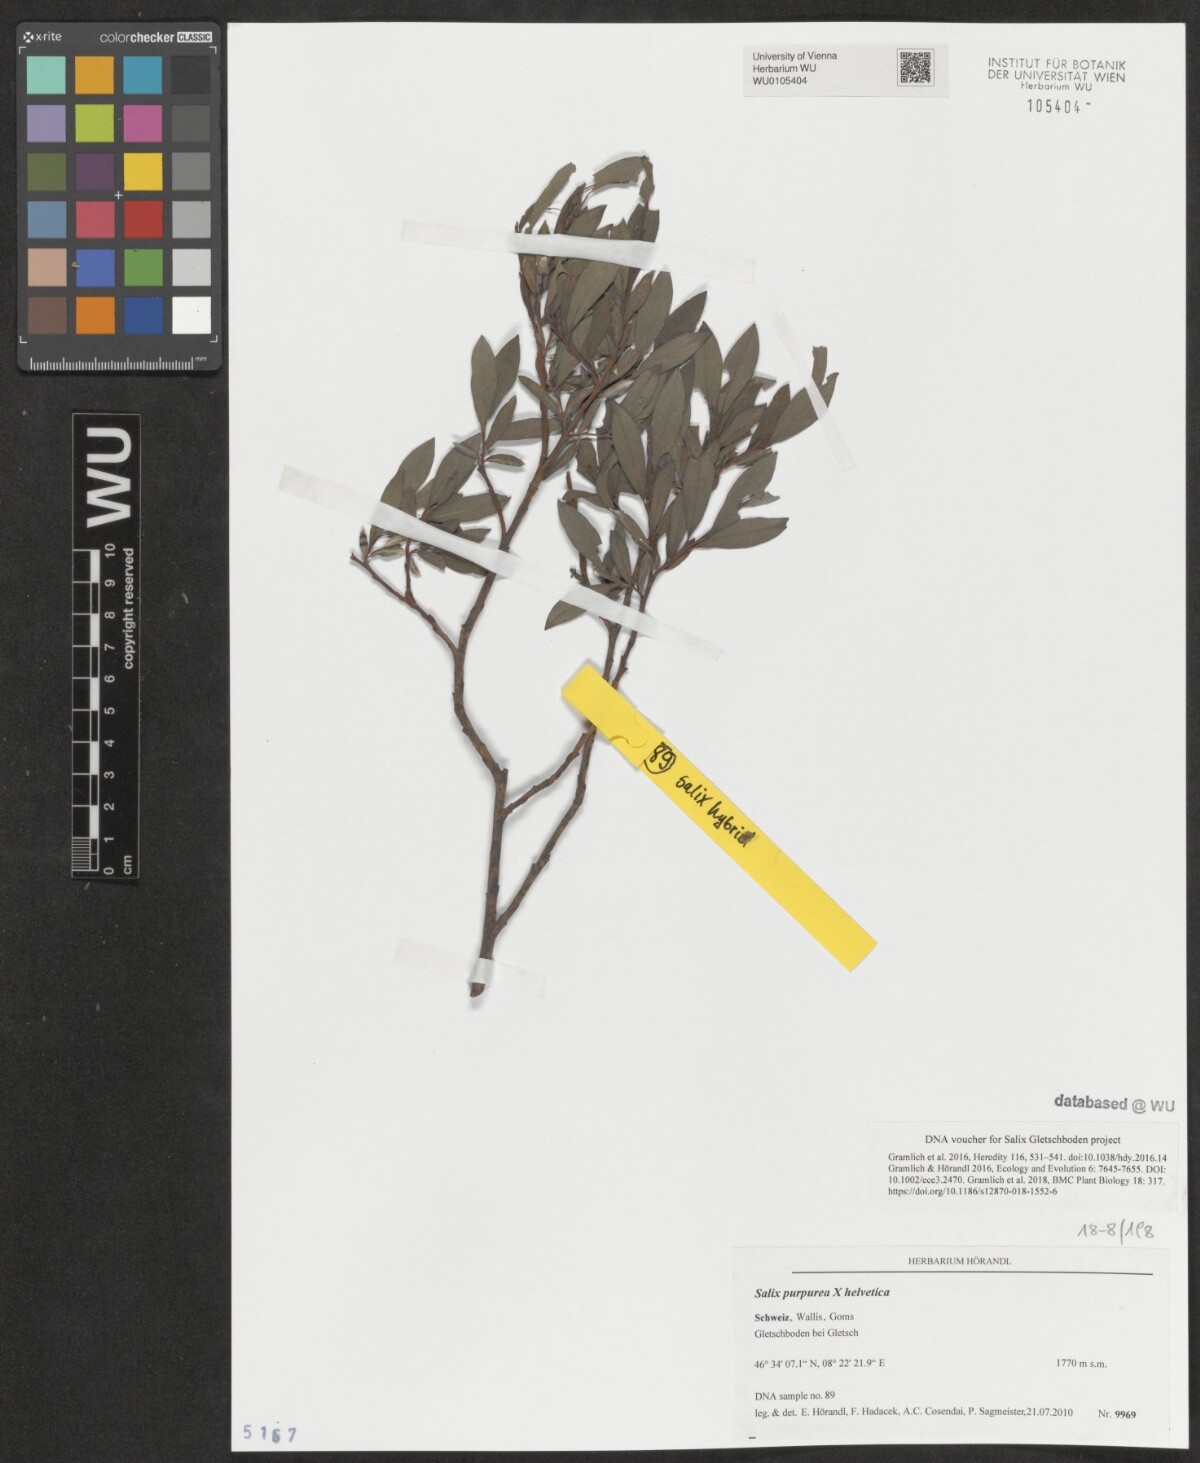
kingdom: Plantae
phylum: Tracheophyta
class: Magnoliopsida
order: Malpighiales
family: Salicaceae
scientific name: Salicaceae
